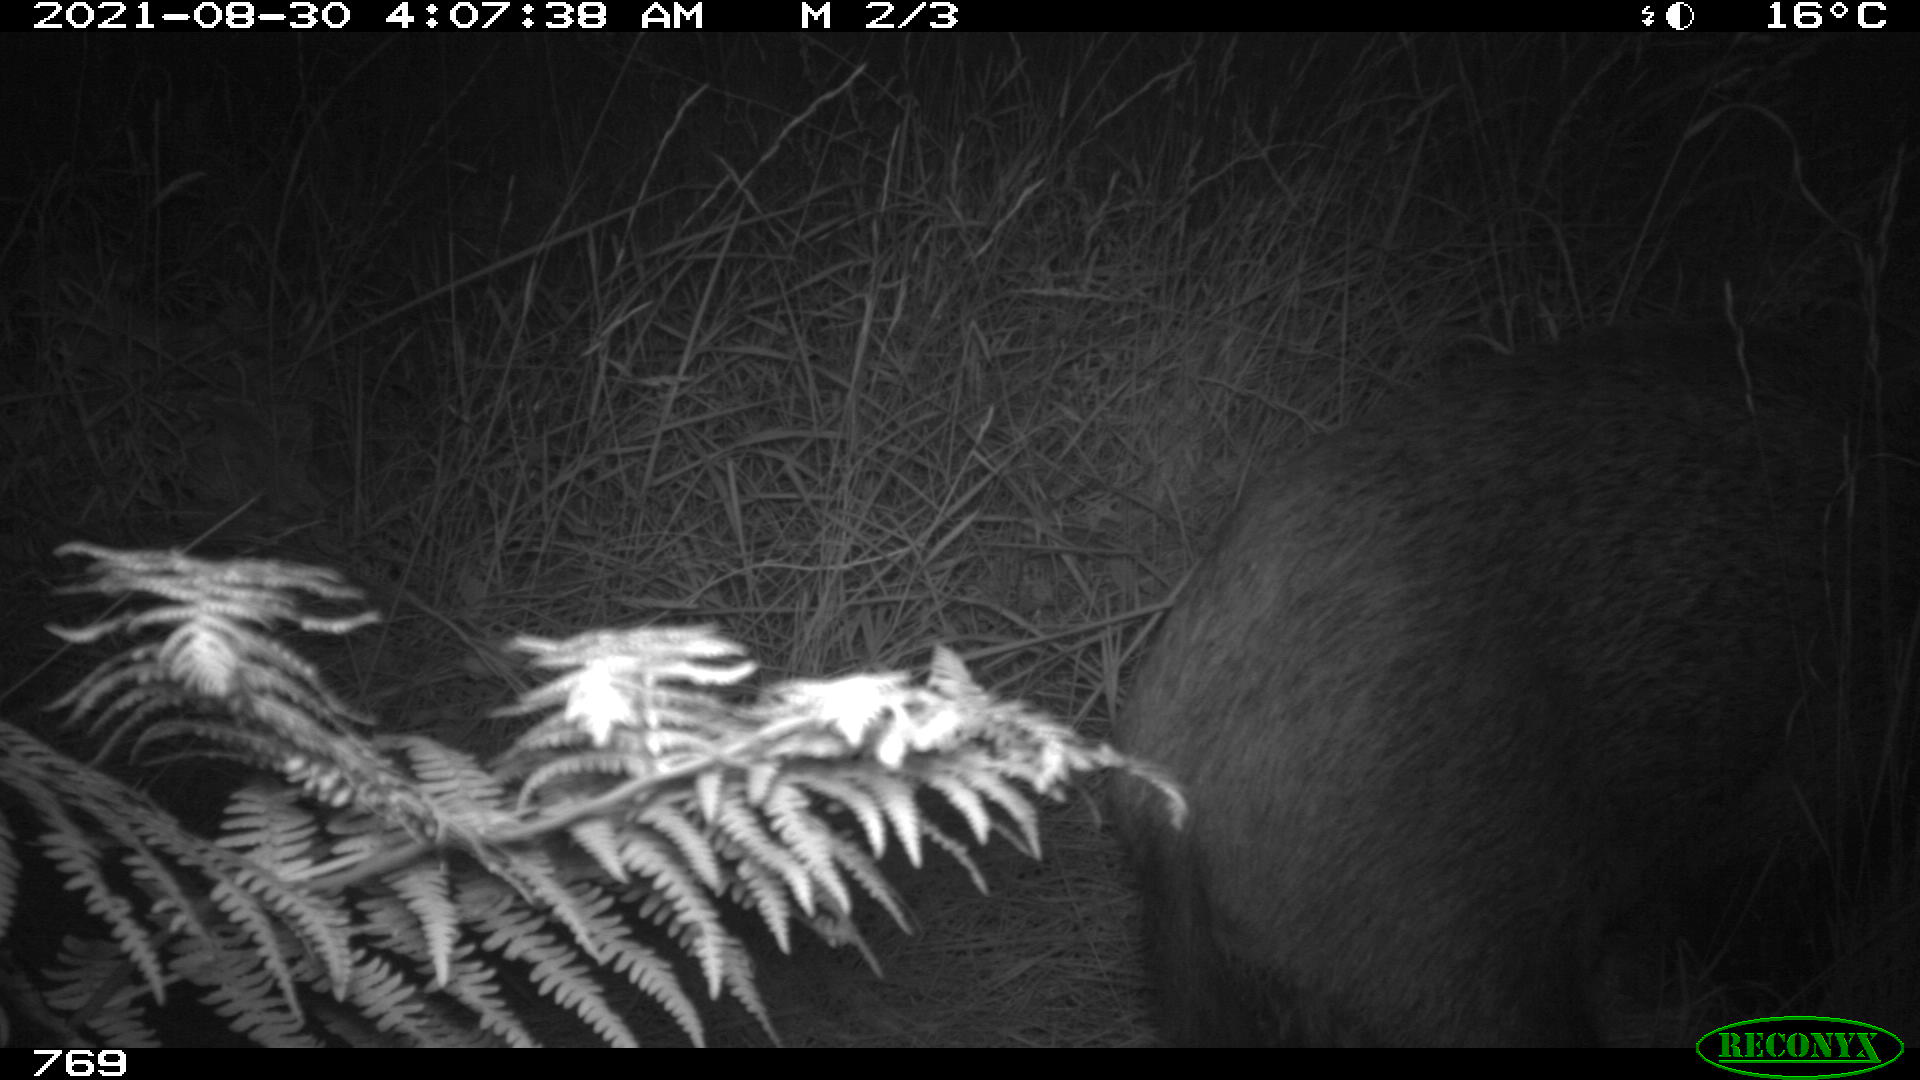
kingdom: Animalia
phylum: Chordata
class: Mammalia
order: Artiodactyla
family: Suidae
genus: Sus
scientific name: Sus scrofa
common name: Wild boar
